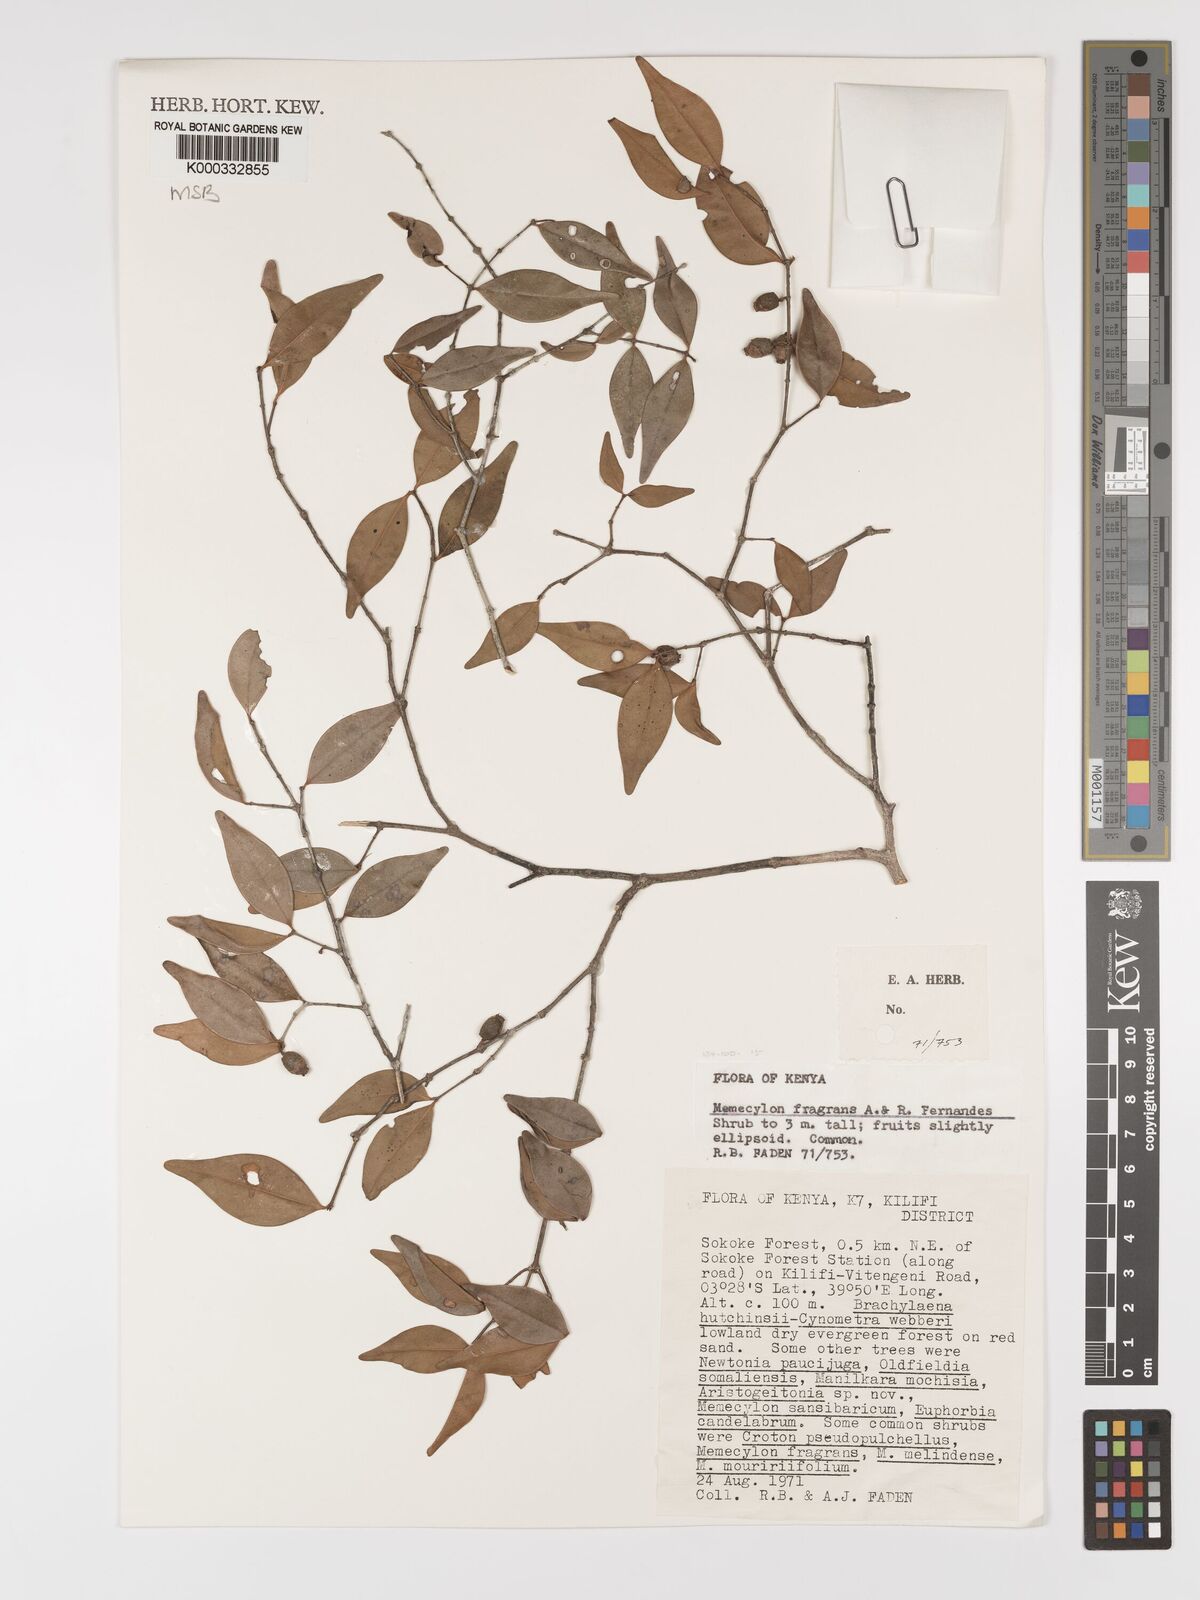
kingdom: Plantae
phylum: Tracheophyta
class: Magnoliopsida
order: Myrtales
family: Melastomataceae
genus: Memecylon
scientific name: Memecylon fragrans
